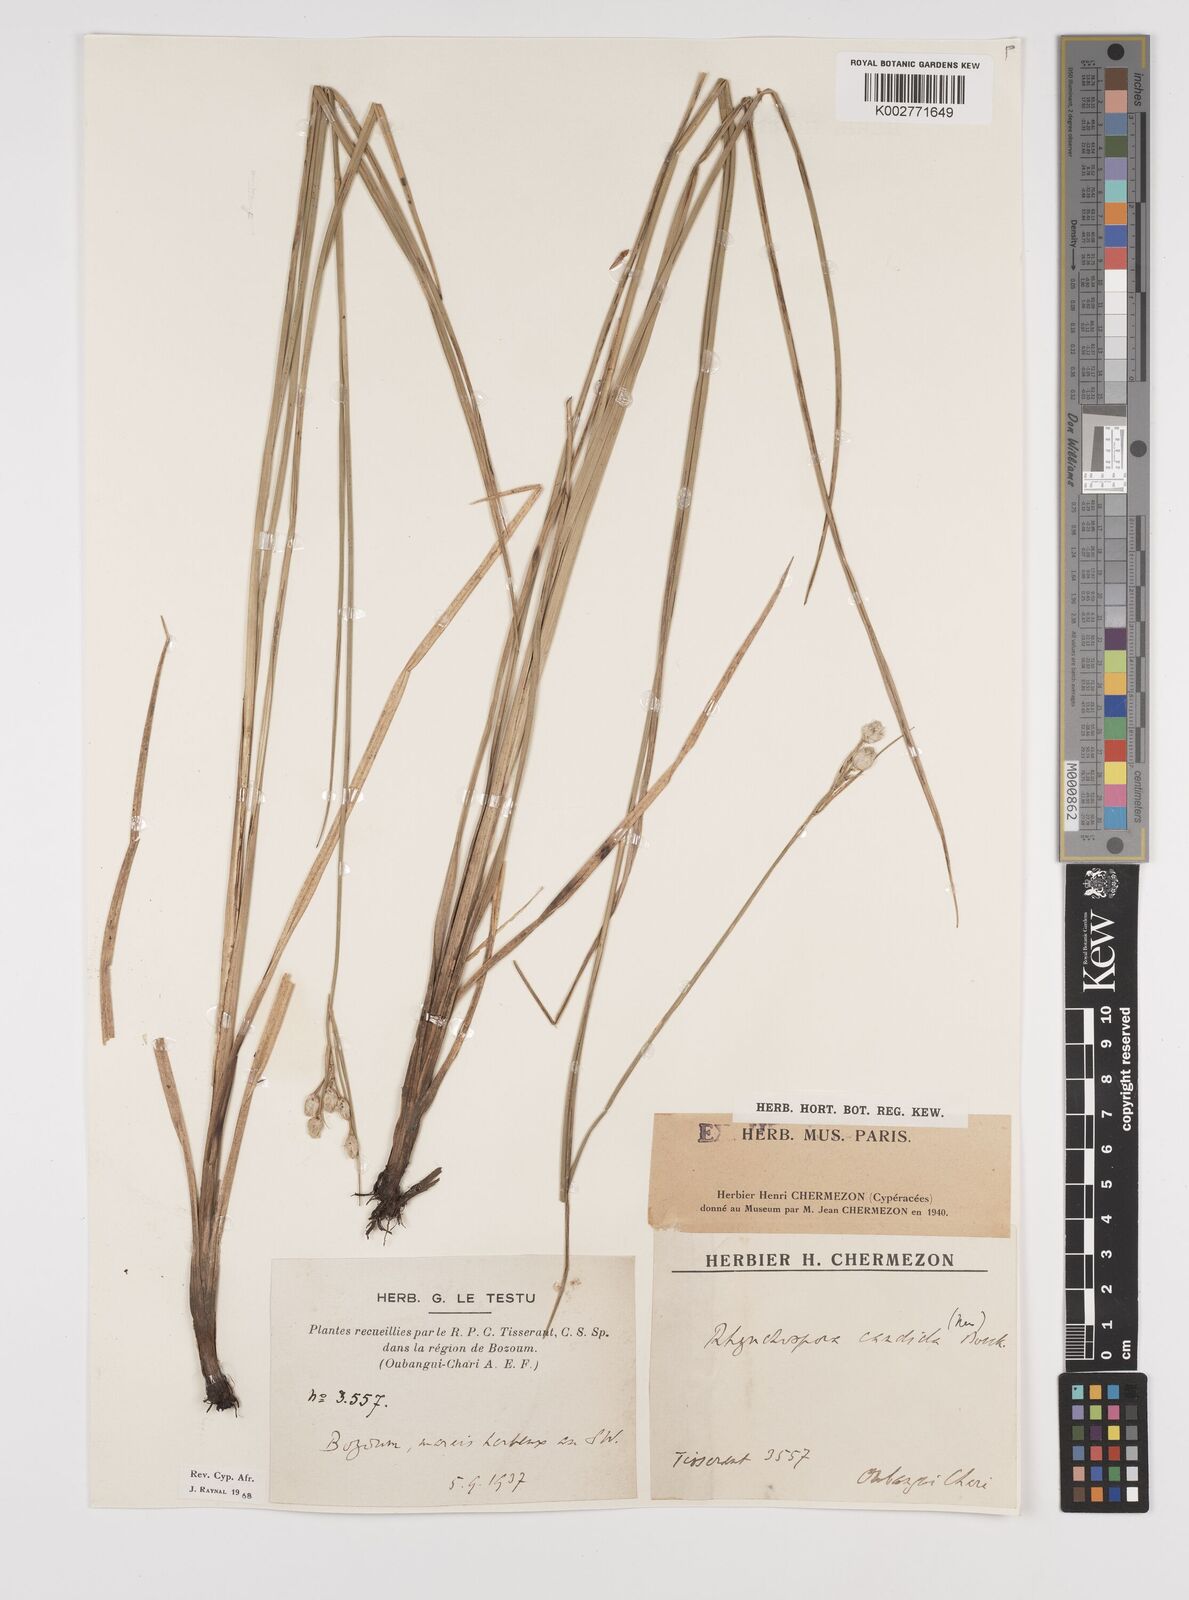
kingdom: Plantae
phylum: Tracheophyta
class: Liliopsida
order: Poales
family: Cyperaceae
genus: Rhynchospora
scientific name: Rhynchospora candida
